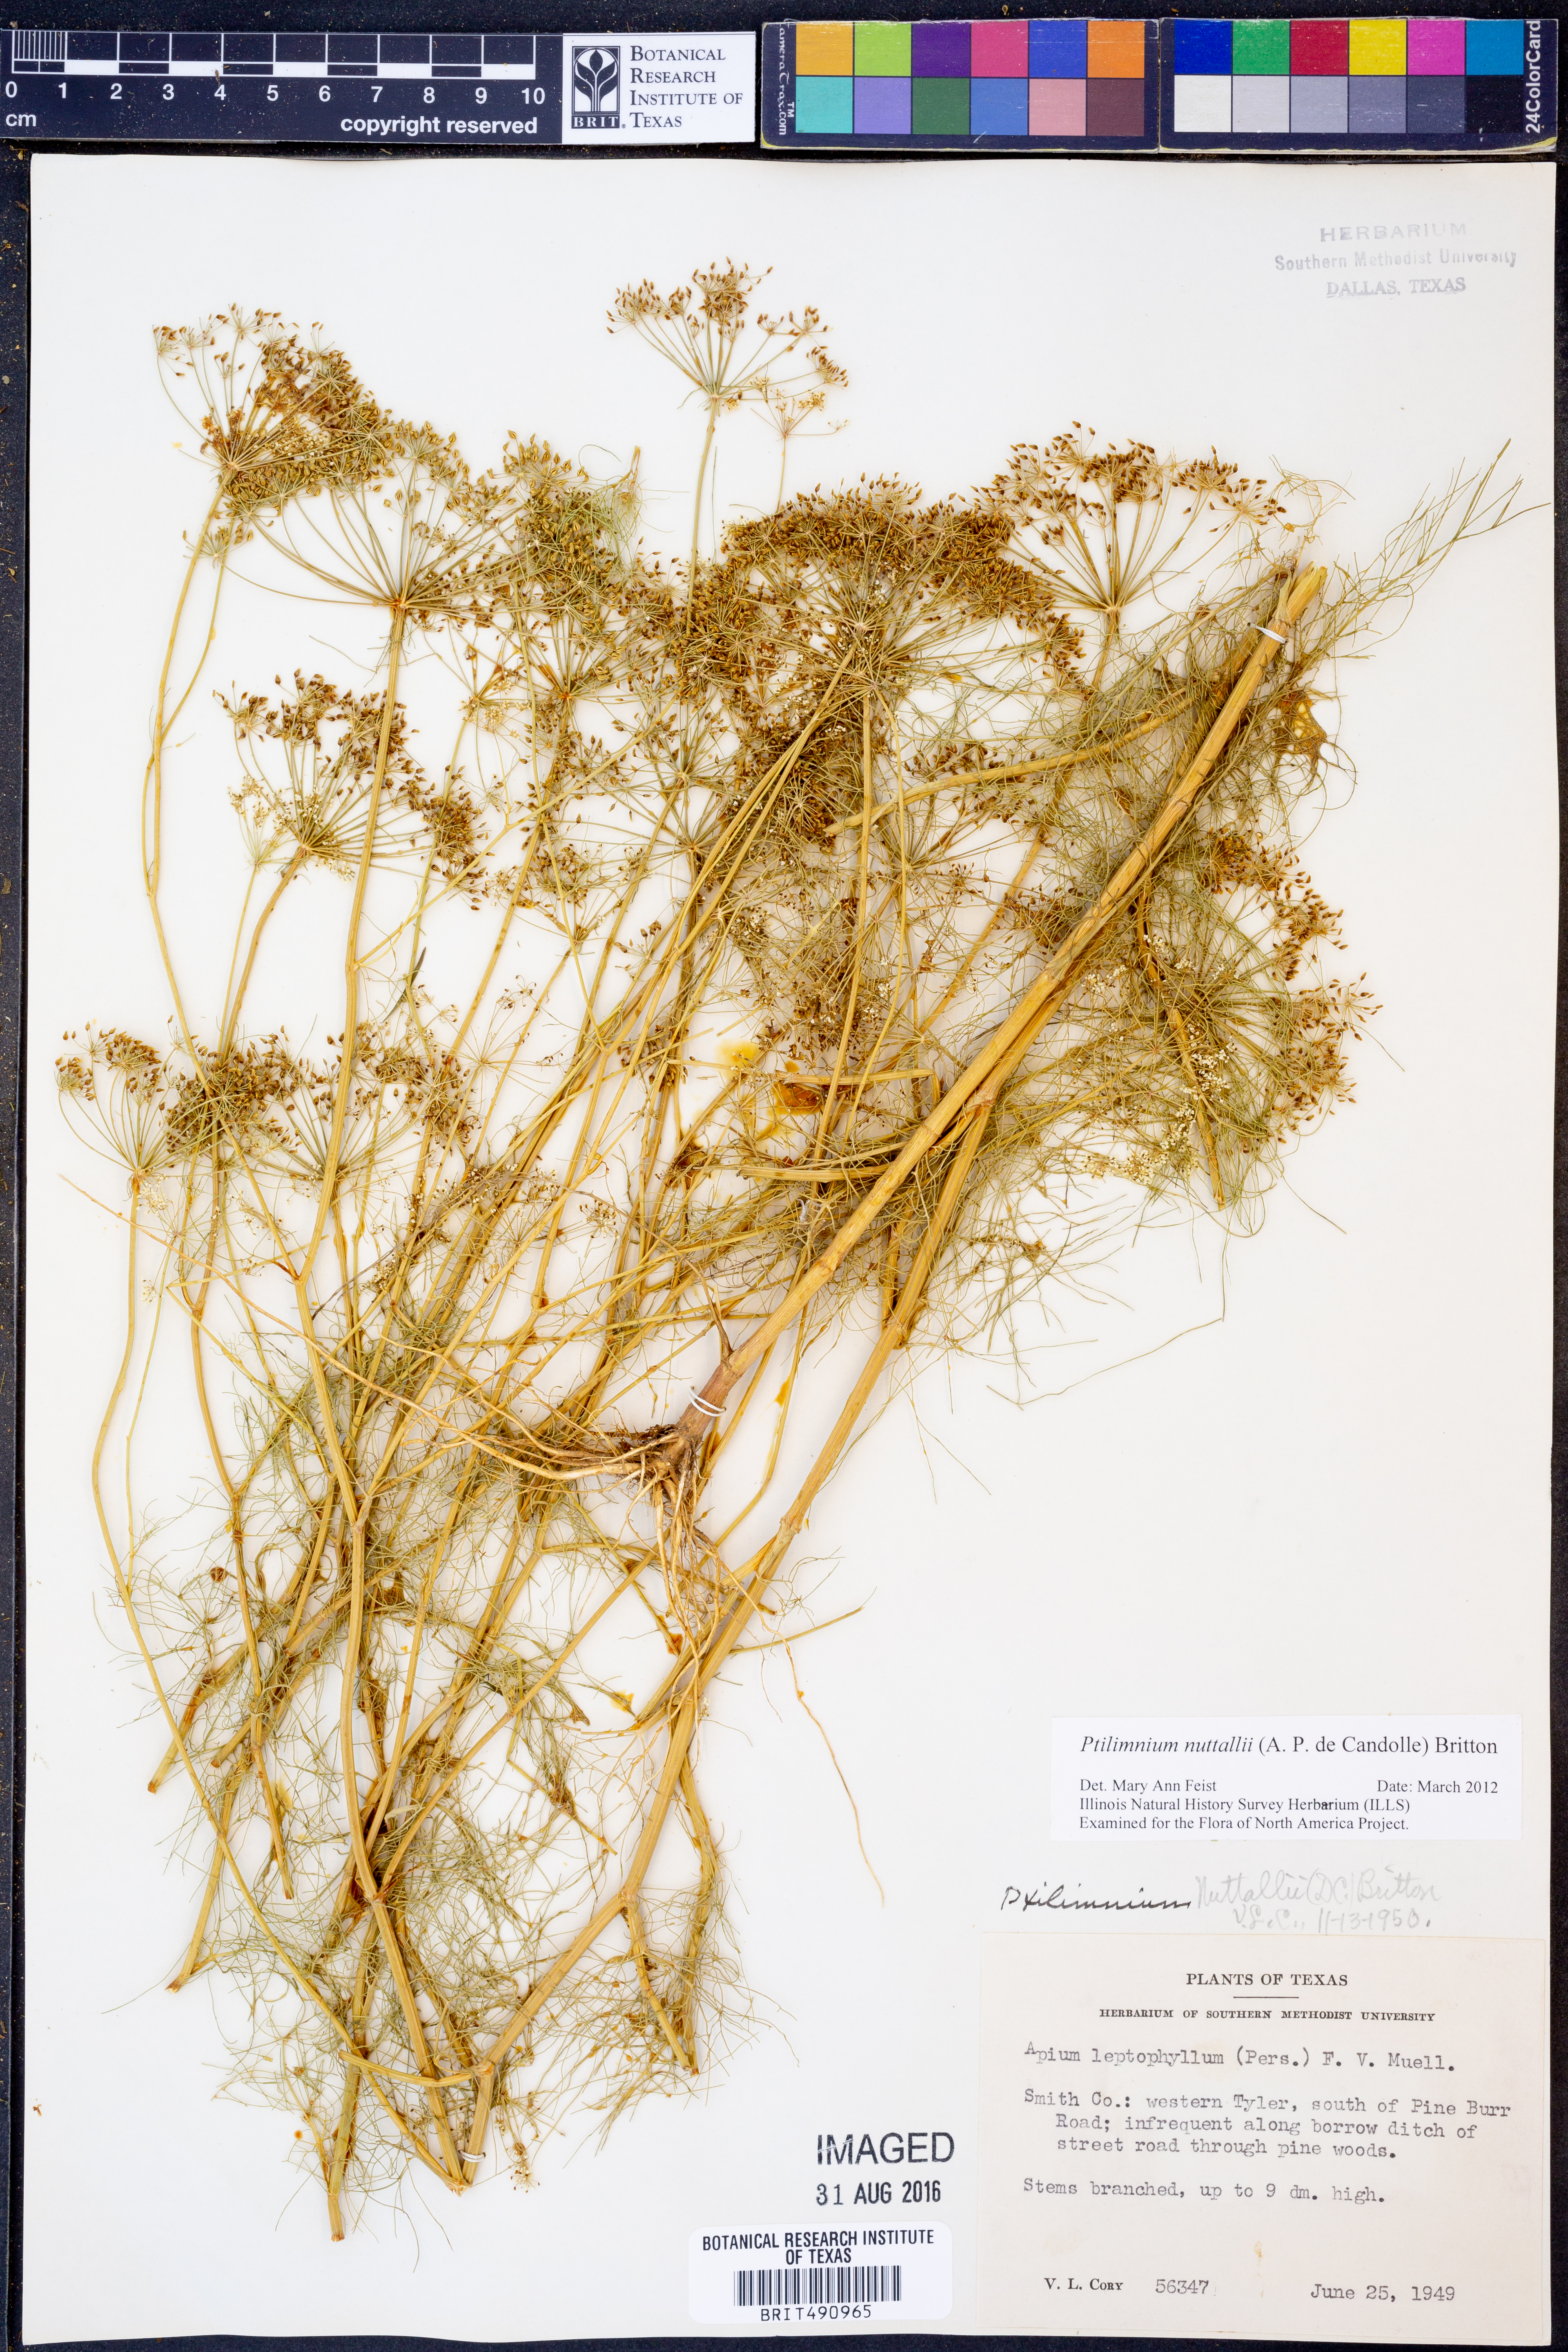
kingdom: Plantae
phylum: Tracheophyta
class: Magnoliopsida
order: Apiales
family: Apiaceae
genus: Ptilimnium
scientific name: Ptilimnium nuttallii
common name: Ozark bishop's-weed
